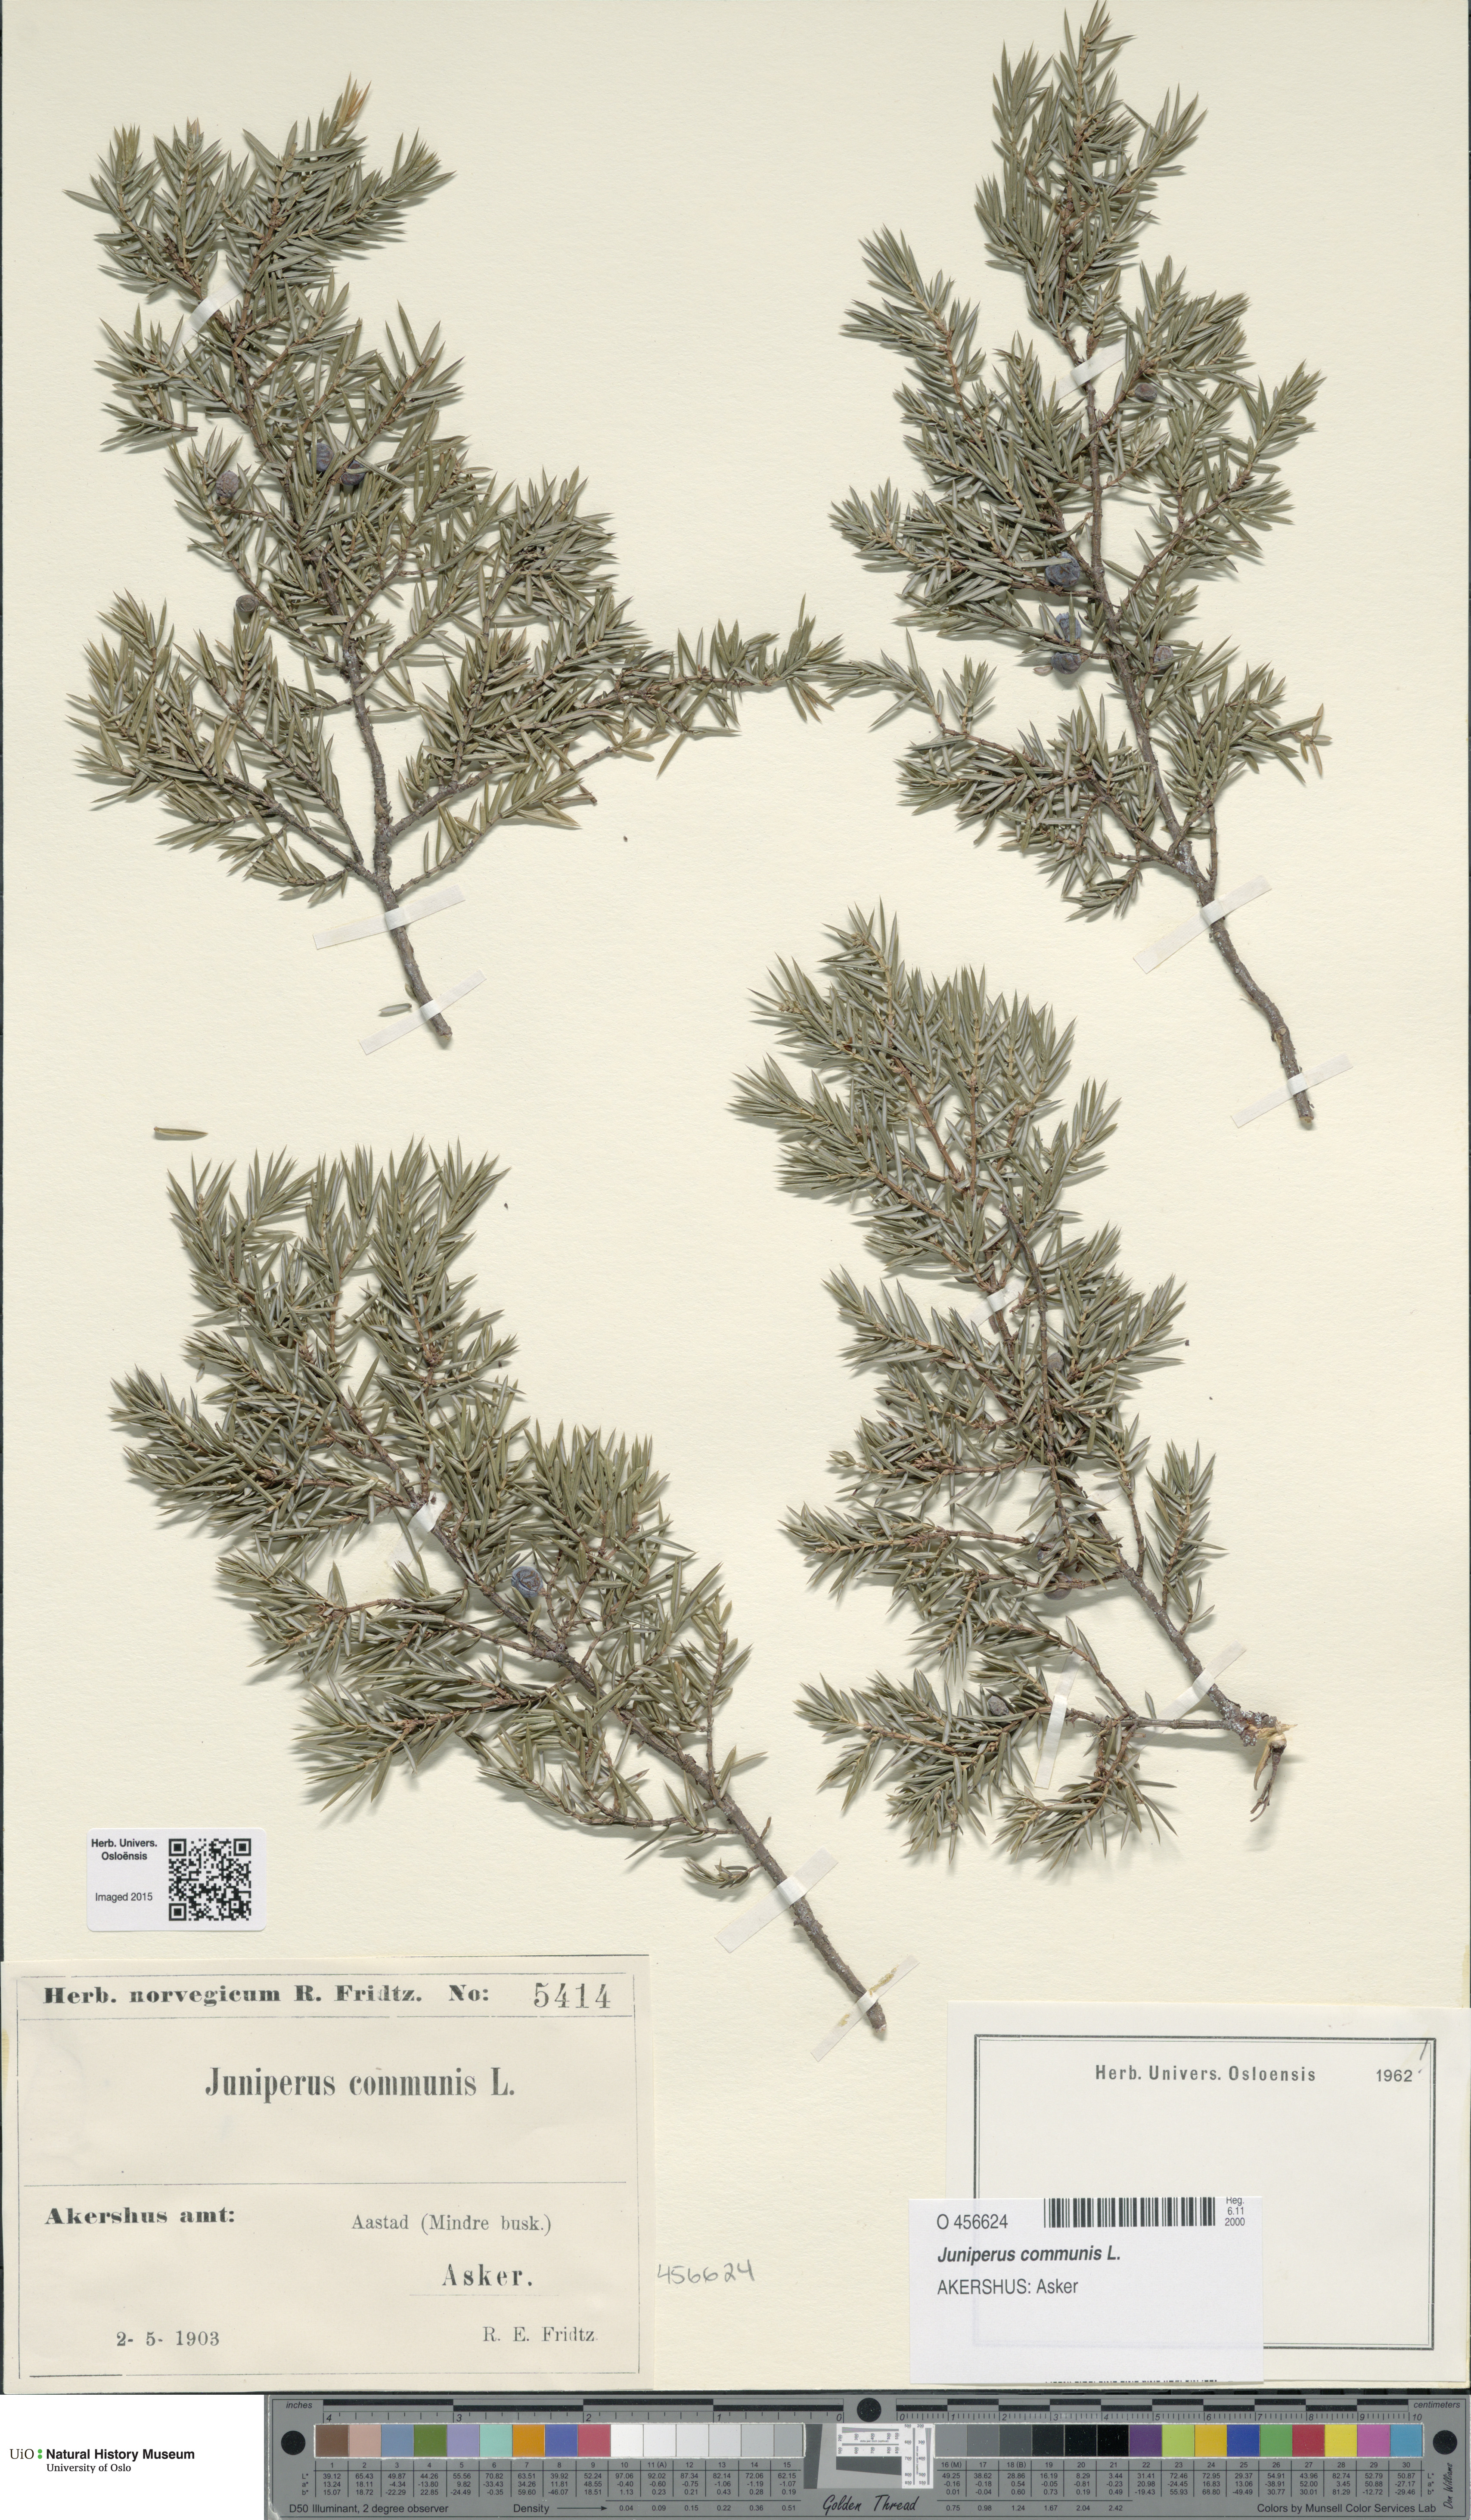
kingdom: Plantae
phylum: Tracheophyta
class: Pinopsida
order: Pinales
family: Cupressaceae
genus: Juniperus
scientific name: Juniperus communis
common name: Common juniper
